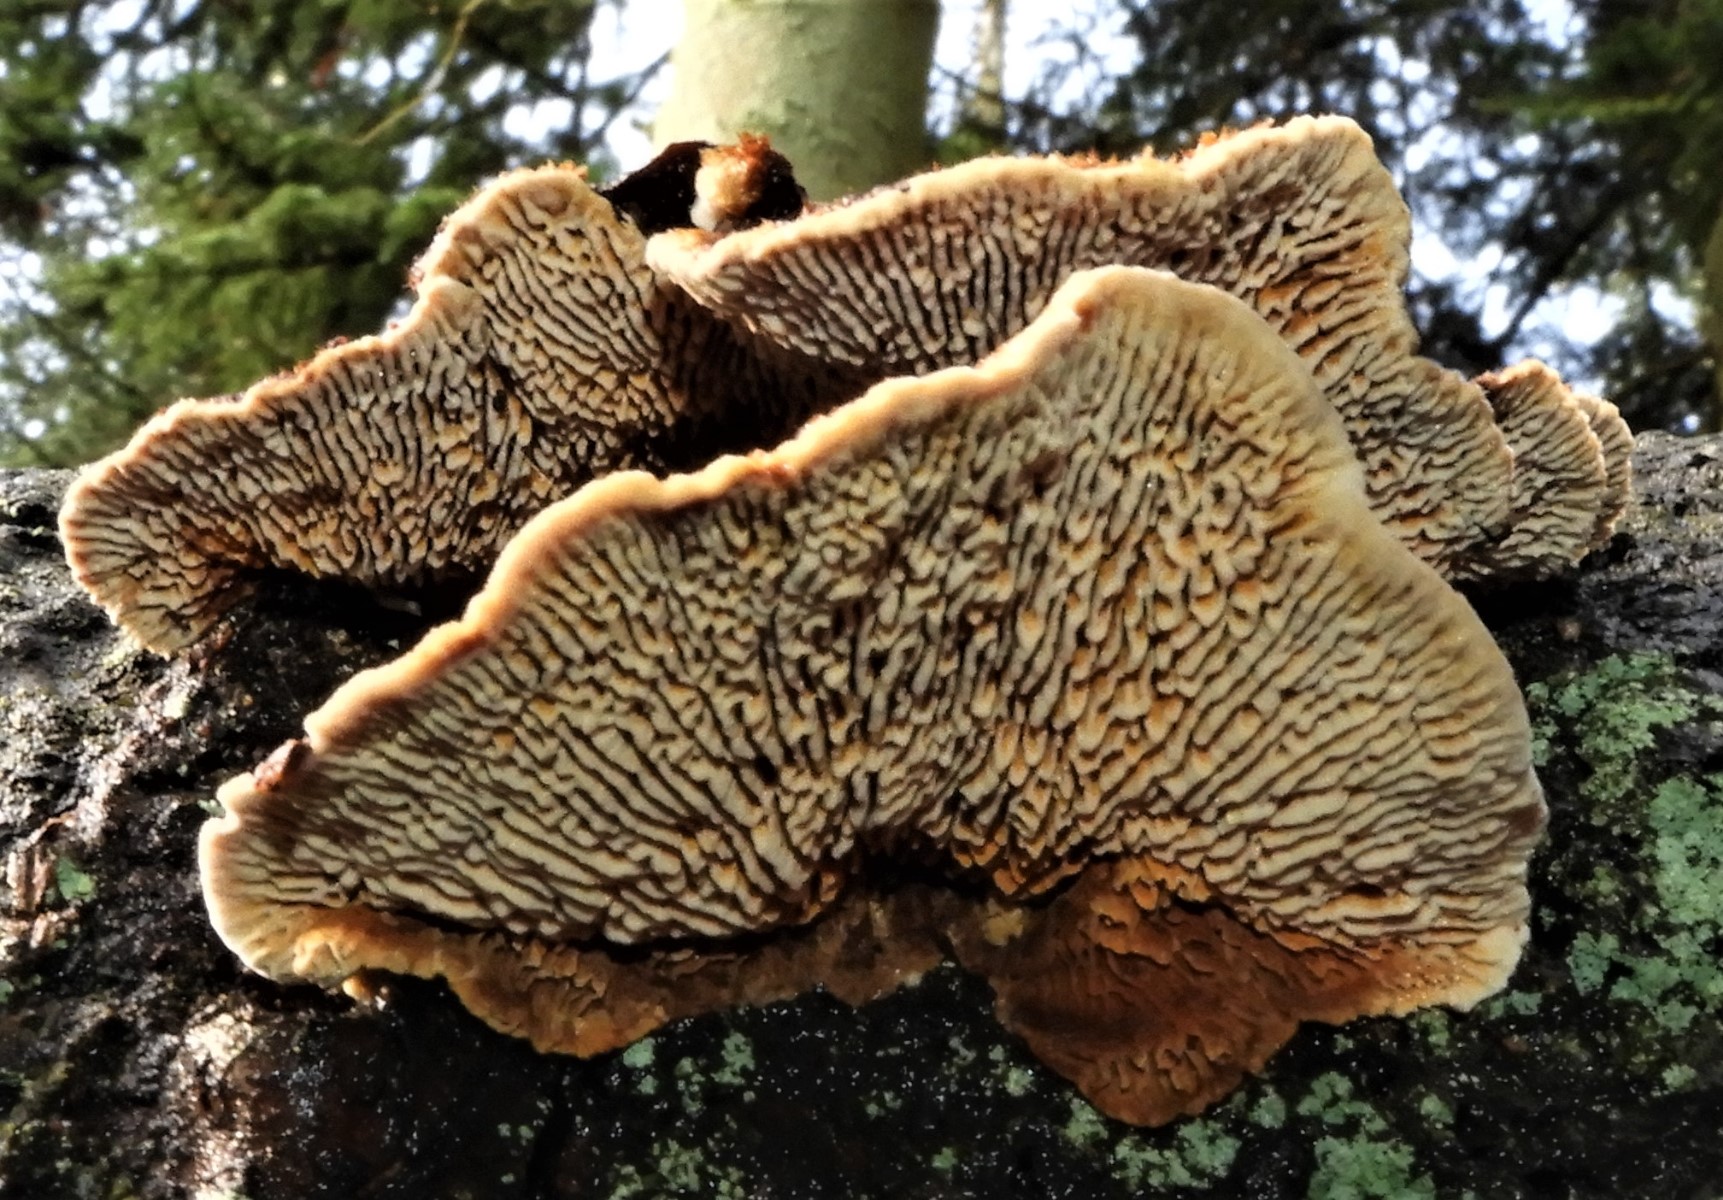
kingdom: Fungi
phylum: Basidiomycota
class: Agaricomycetes
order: Gloeophyllales
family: Gloeophyllaceae
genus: Gloeophyllum
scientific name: Gloeophyllum sepiarium
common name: fyrre-korkhat
